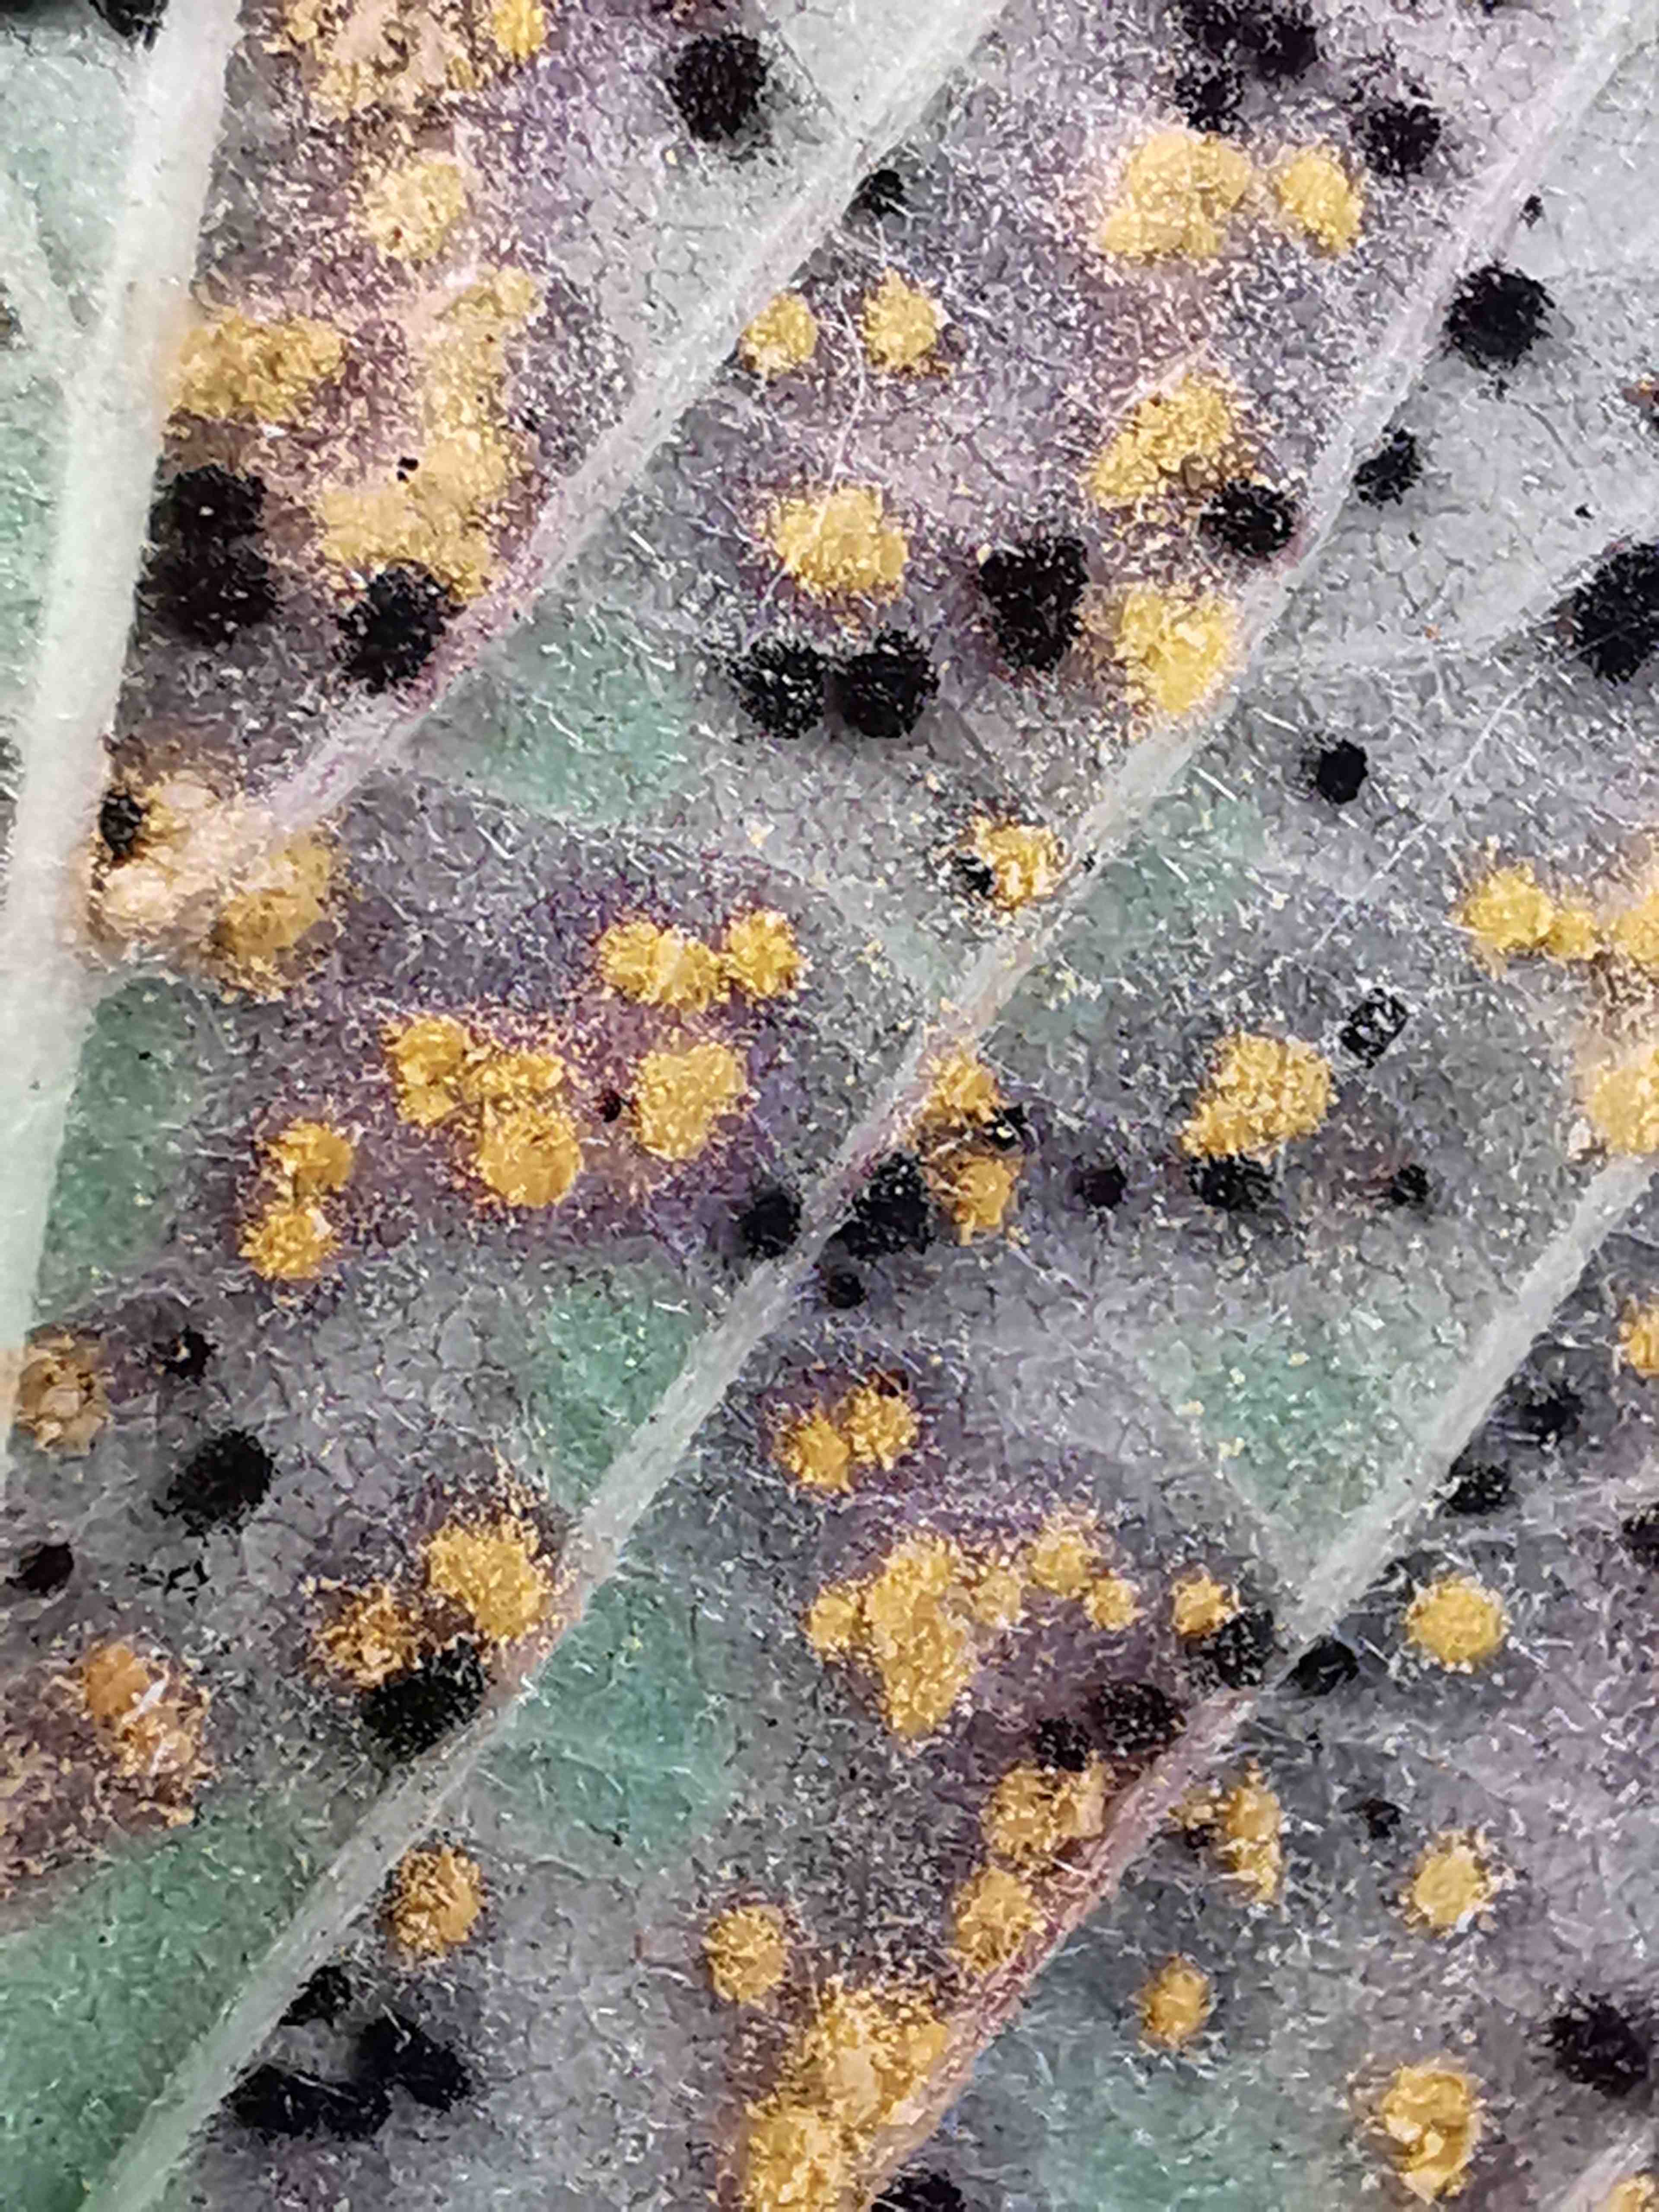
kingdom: Fungi
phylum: Basidiomycota
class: Pucciniomycetes
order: Pucciniales
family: Phragmidiaceae
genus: Phragmidium
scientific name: Phragmidium violaceum
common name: violet flercellerust
